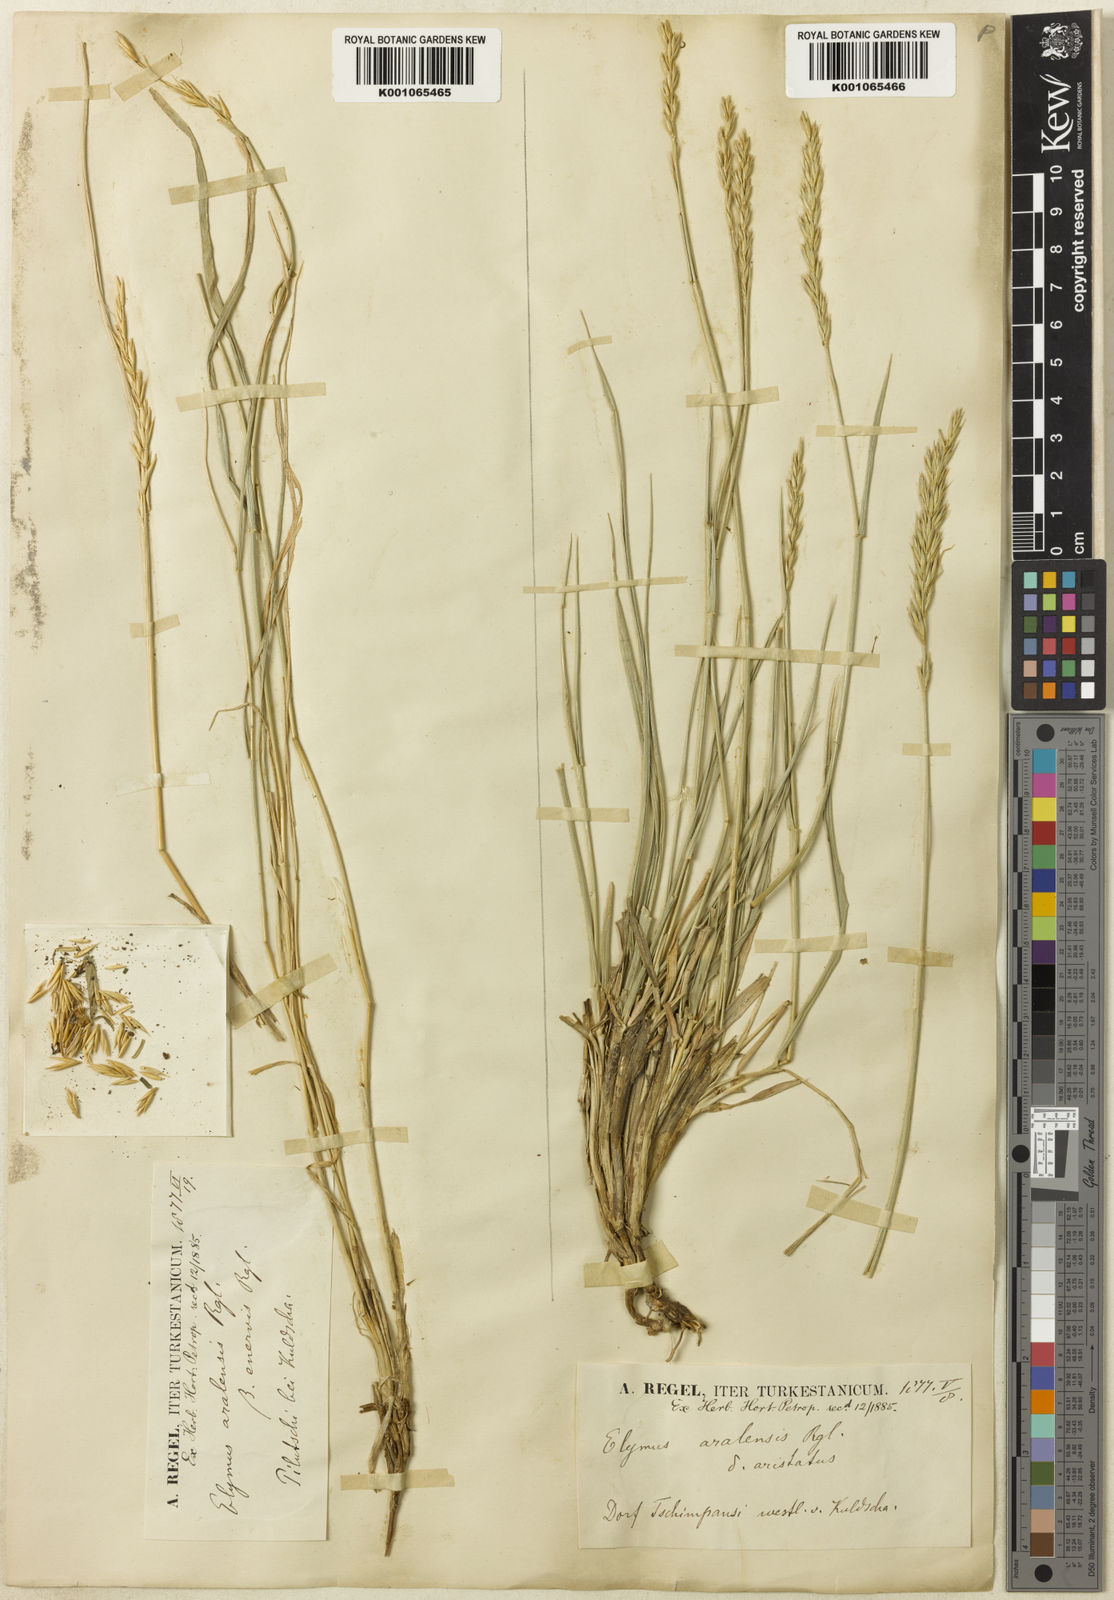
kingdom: Plantae
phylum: Tracheophyta
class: Liliopsida
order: Poales
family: Poaceae
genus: Leymus
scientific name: Leymus multicaulis
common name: Manystem wildrye
